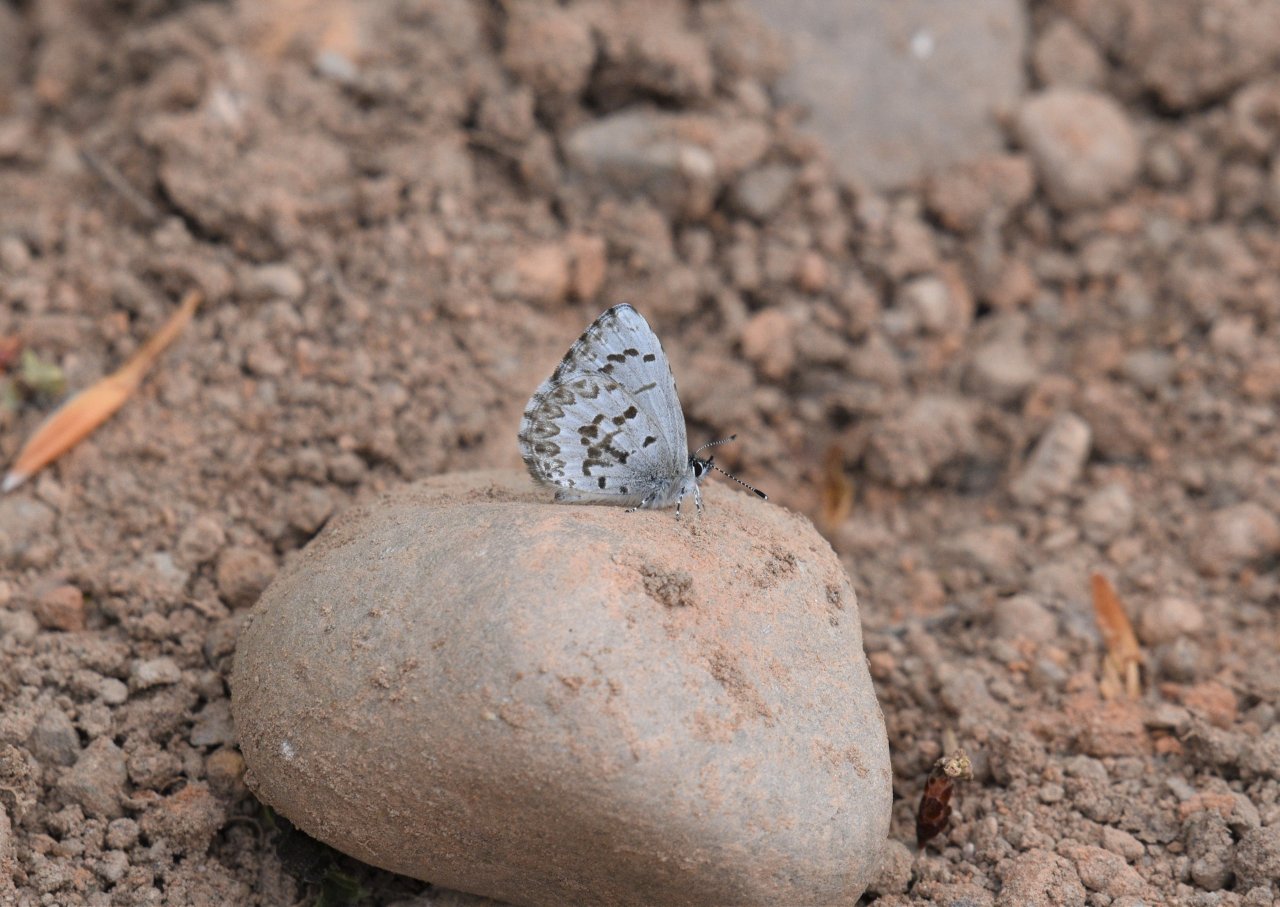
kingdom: Animalia
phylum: Arthropoda
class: Insecta
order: Lepidoptera
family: Lycaenidae
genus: Celastrina
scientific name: Celastrina lucia
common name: Northern Spring Azure
